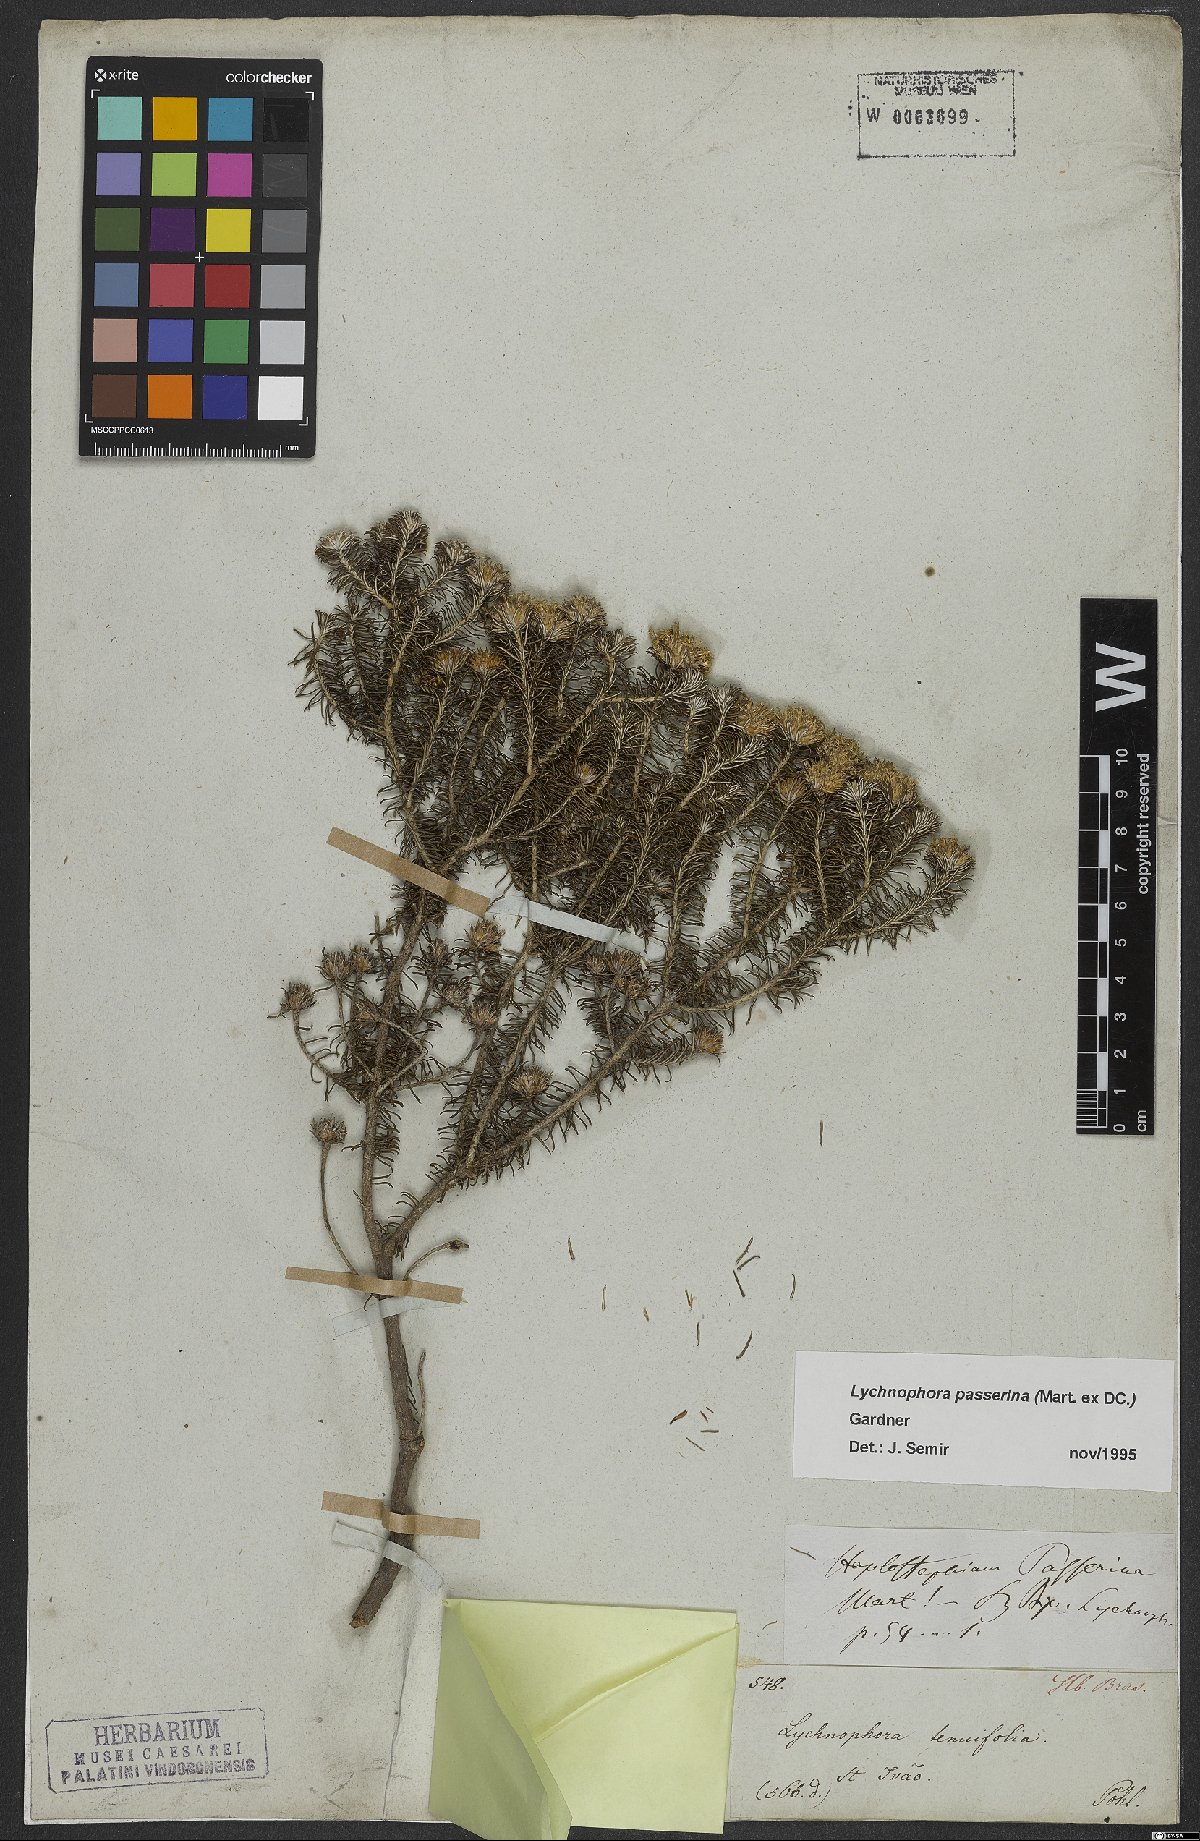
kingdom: Plantae
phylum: Tracheophyta
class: Magnoliopsida
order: Asterales
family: Asteraceae
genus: Lychnophora
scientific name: Lychnophora passerina
